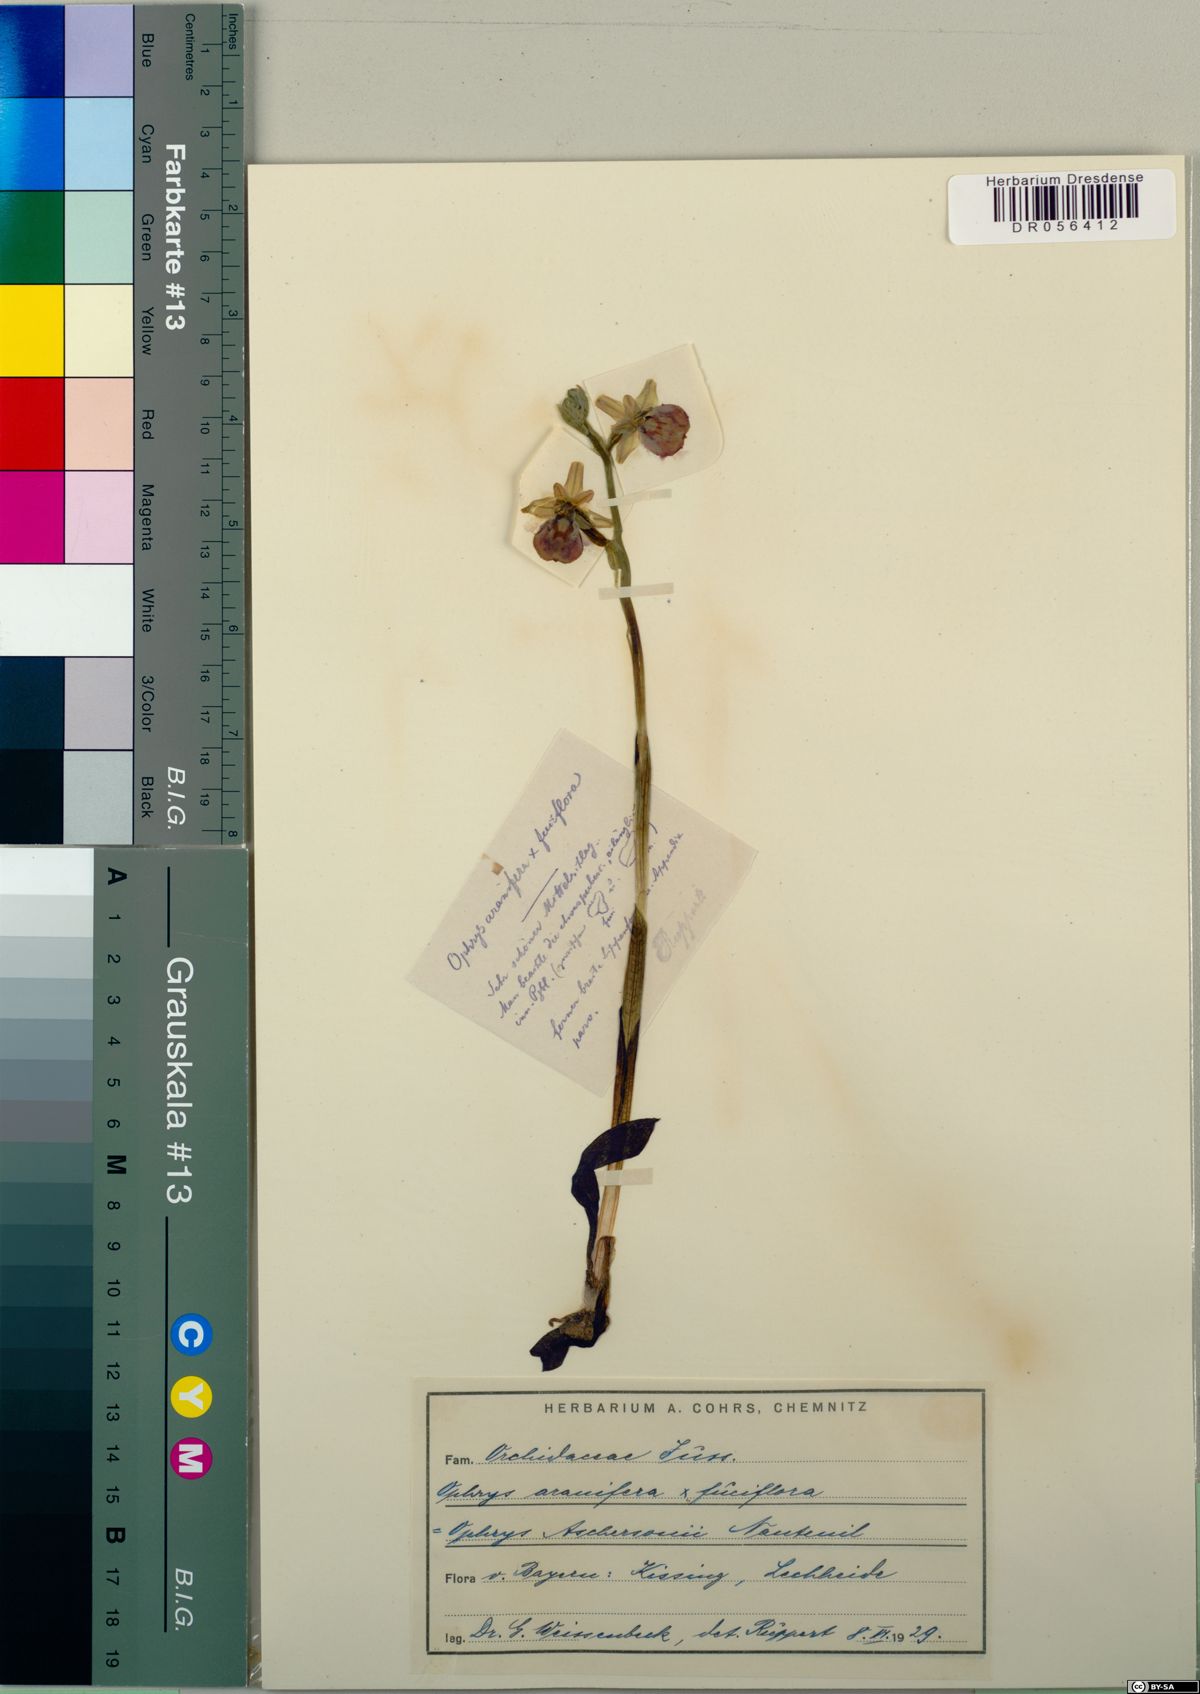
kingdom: Plantae
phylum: Tracheophyta
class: Liliopsida
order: Asparagales
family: Orchidaceae
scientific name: Orchidaceae
